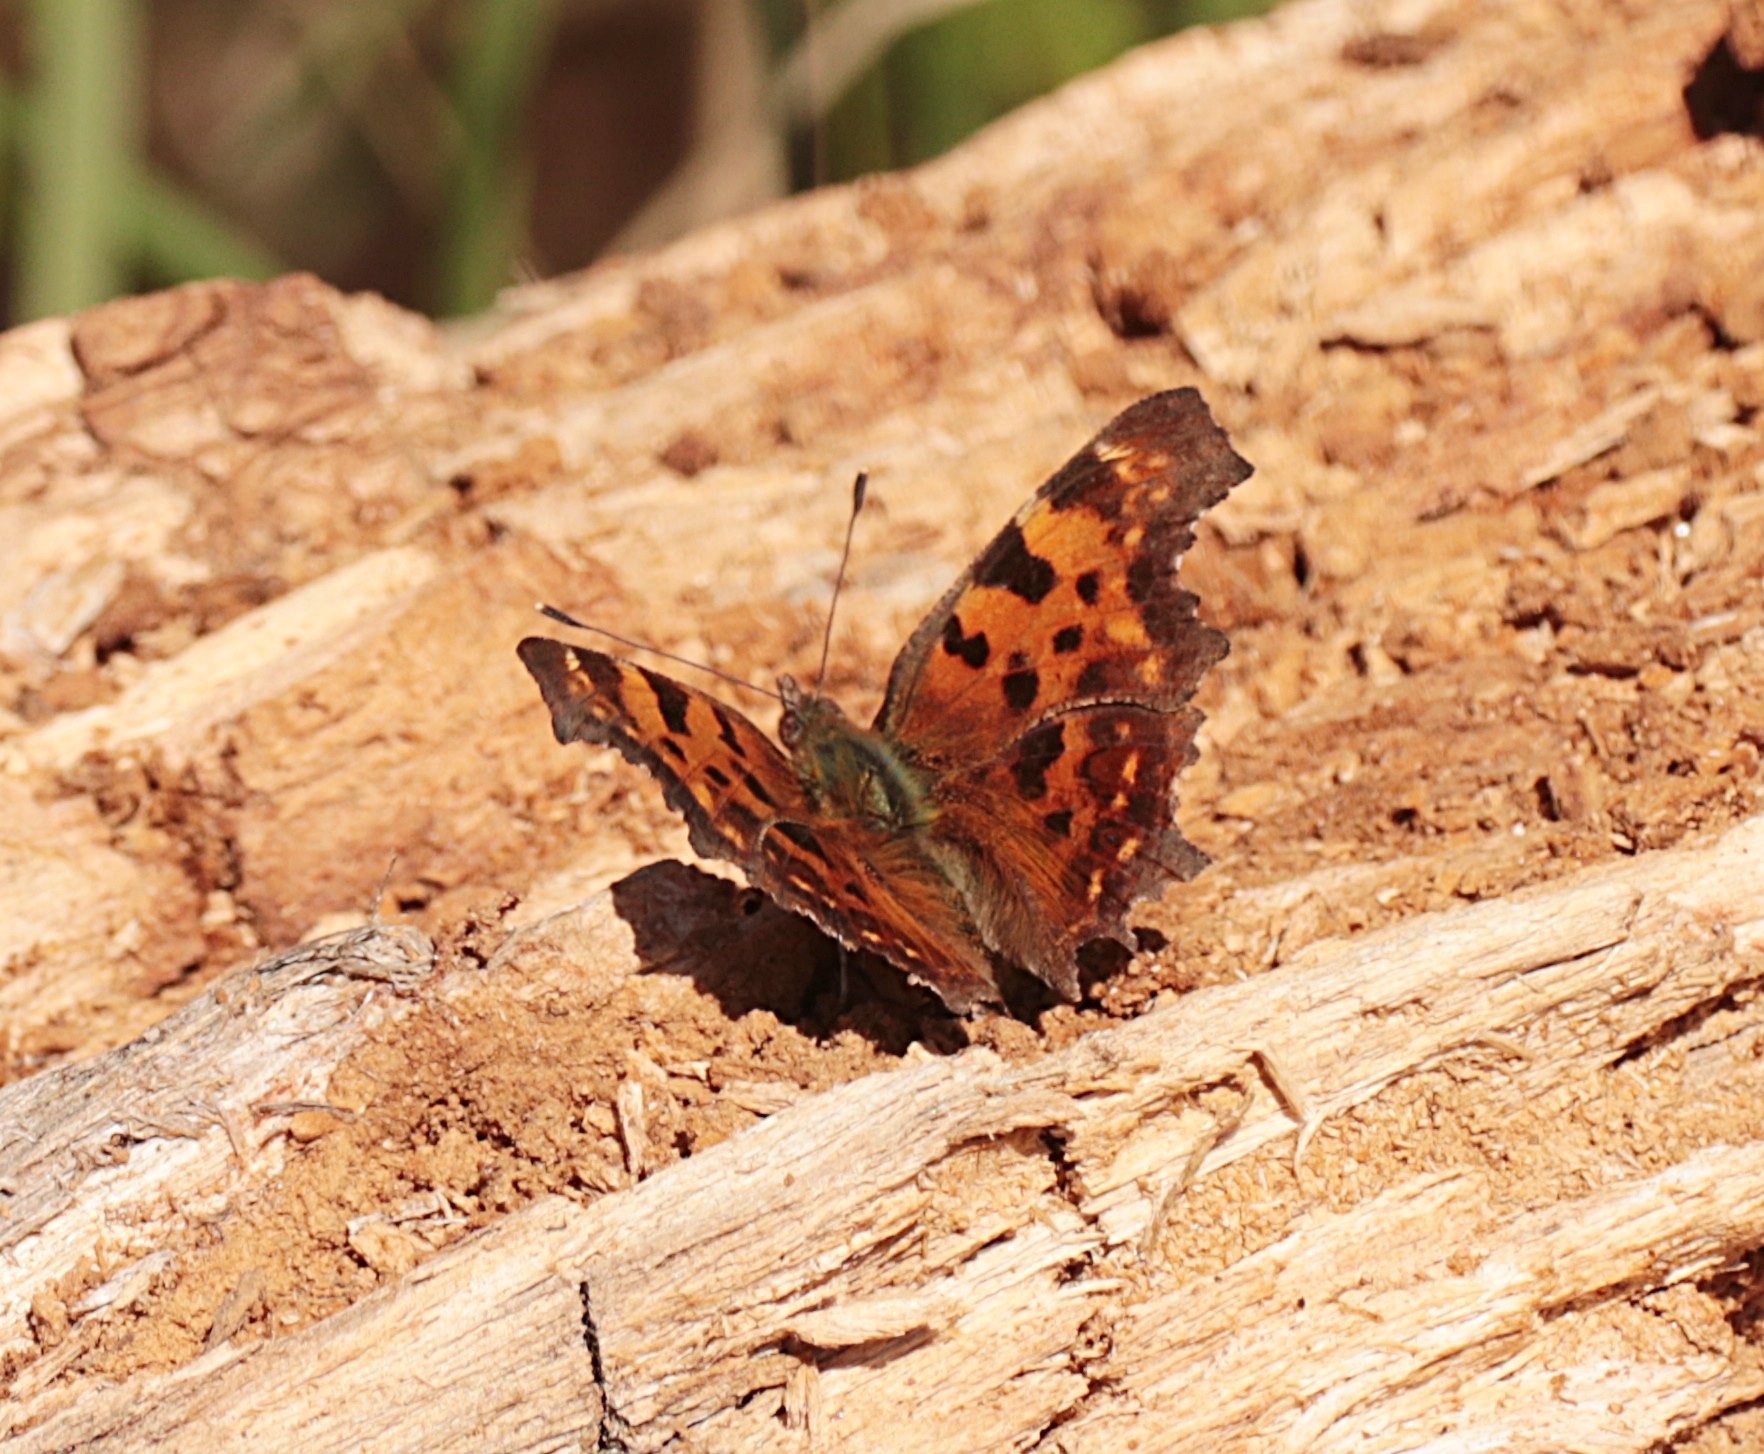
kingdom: Animalia
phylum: Arthropoda
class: Insecta
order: Lepidoptera
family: Nymphalidae
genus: Polygonia
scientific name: Polygonia c-album
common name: Det hvide C
